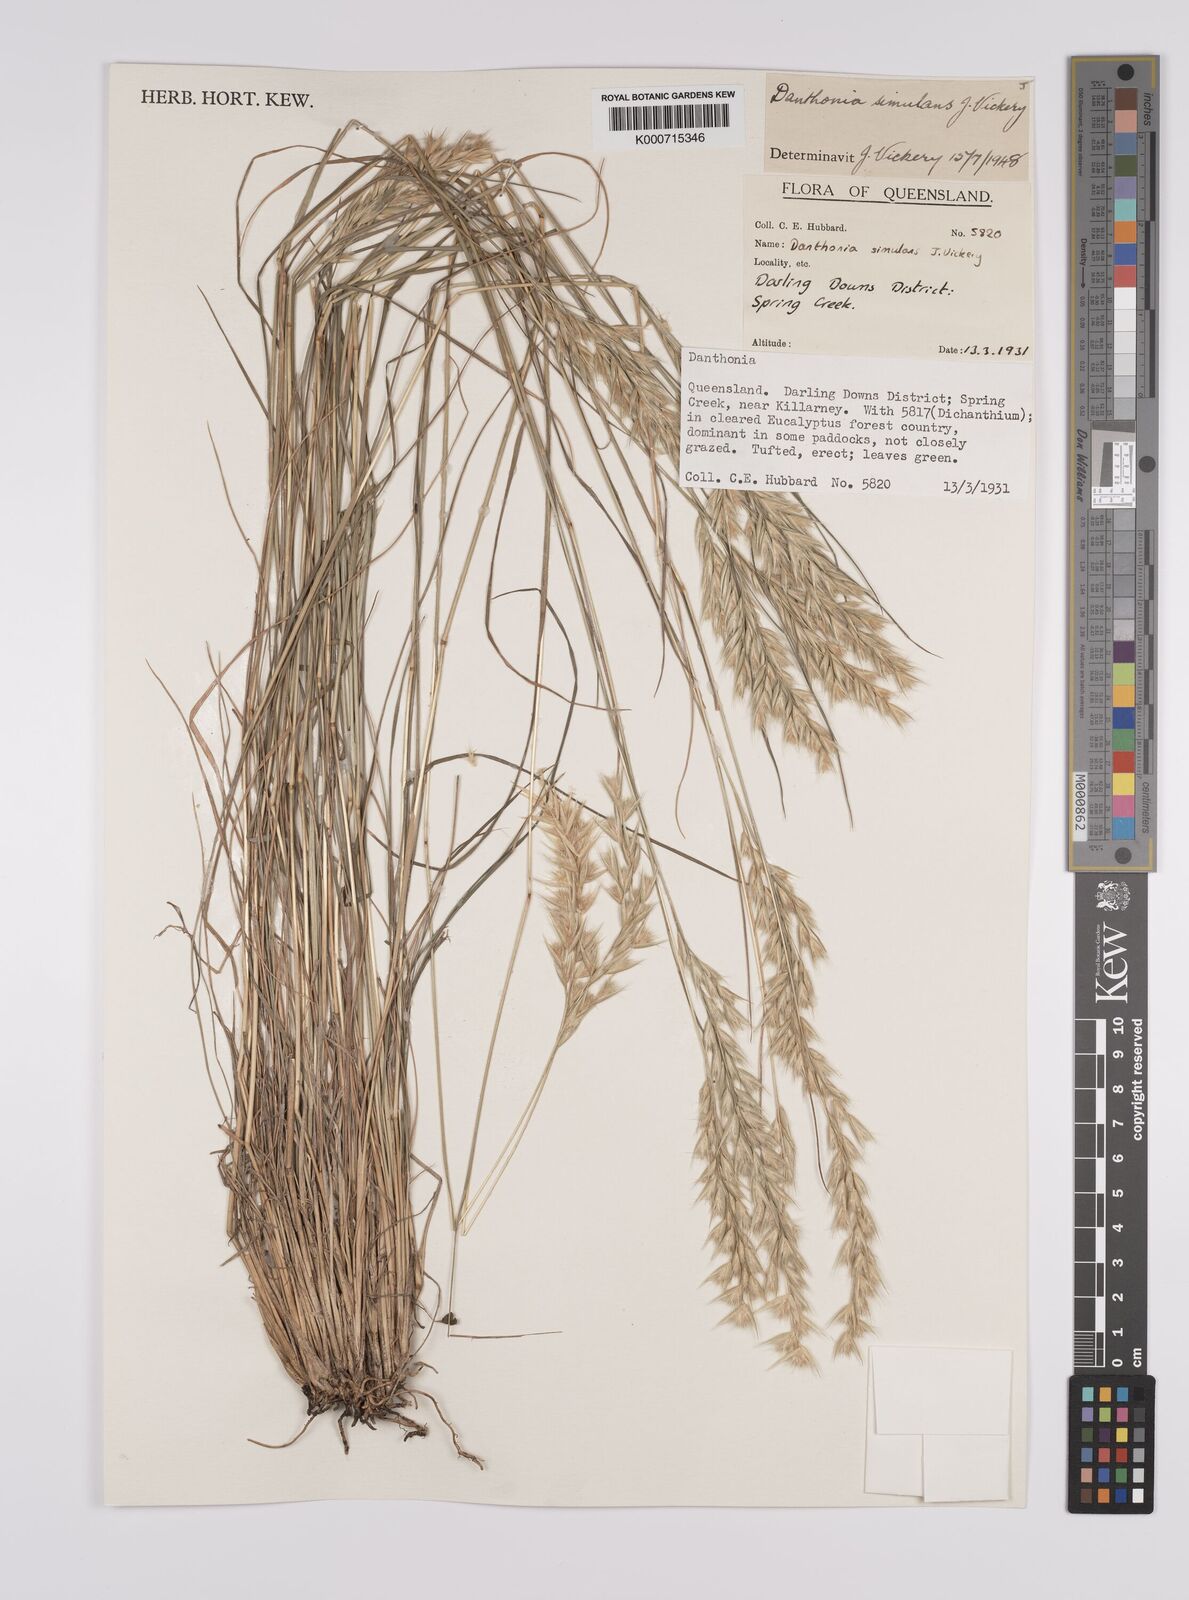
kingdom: Plantae
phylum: Tracheophyta
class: Liliopsida
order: Poales
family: Poaceae
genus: Rytidosperma
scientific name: Rytidosperma bipartitum
